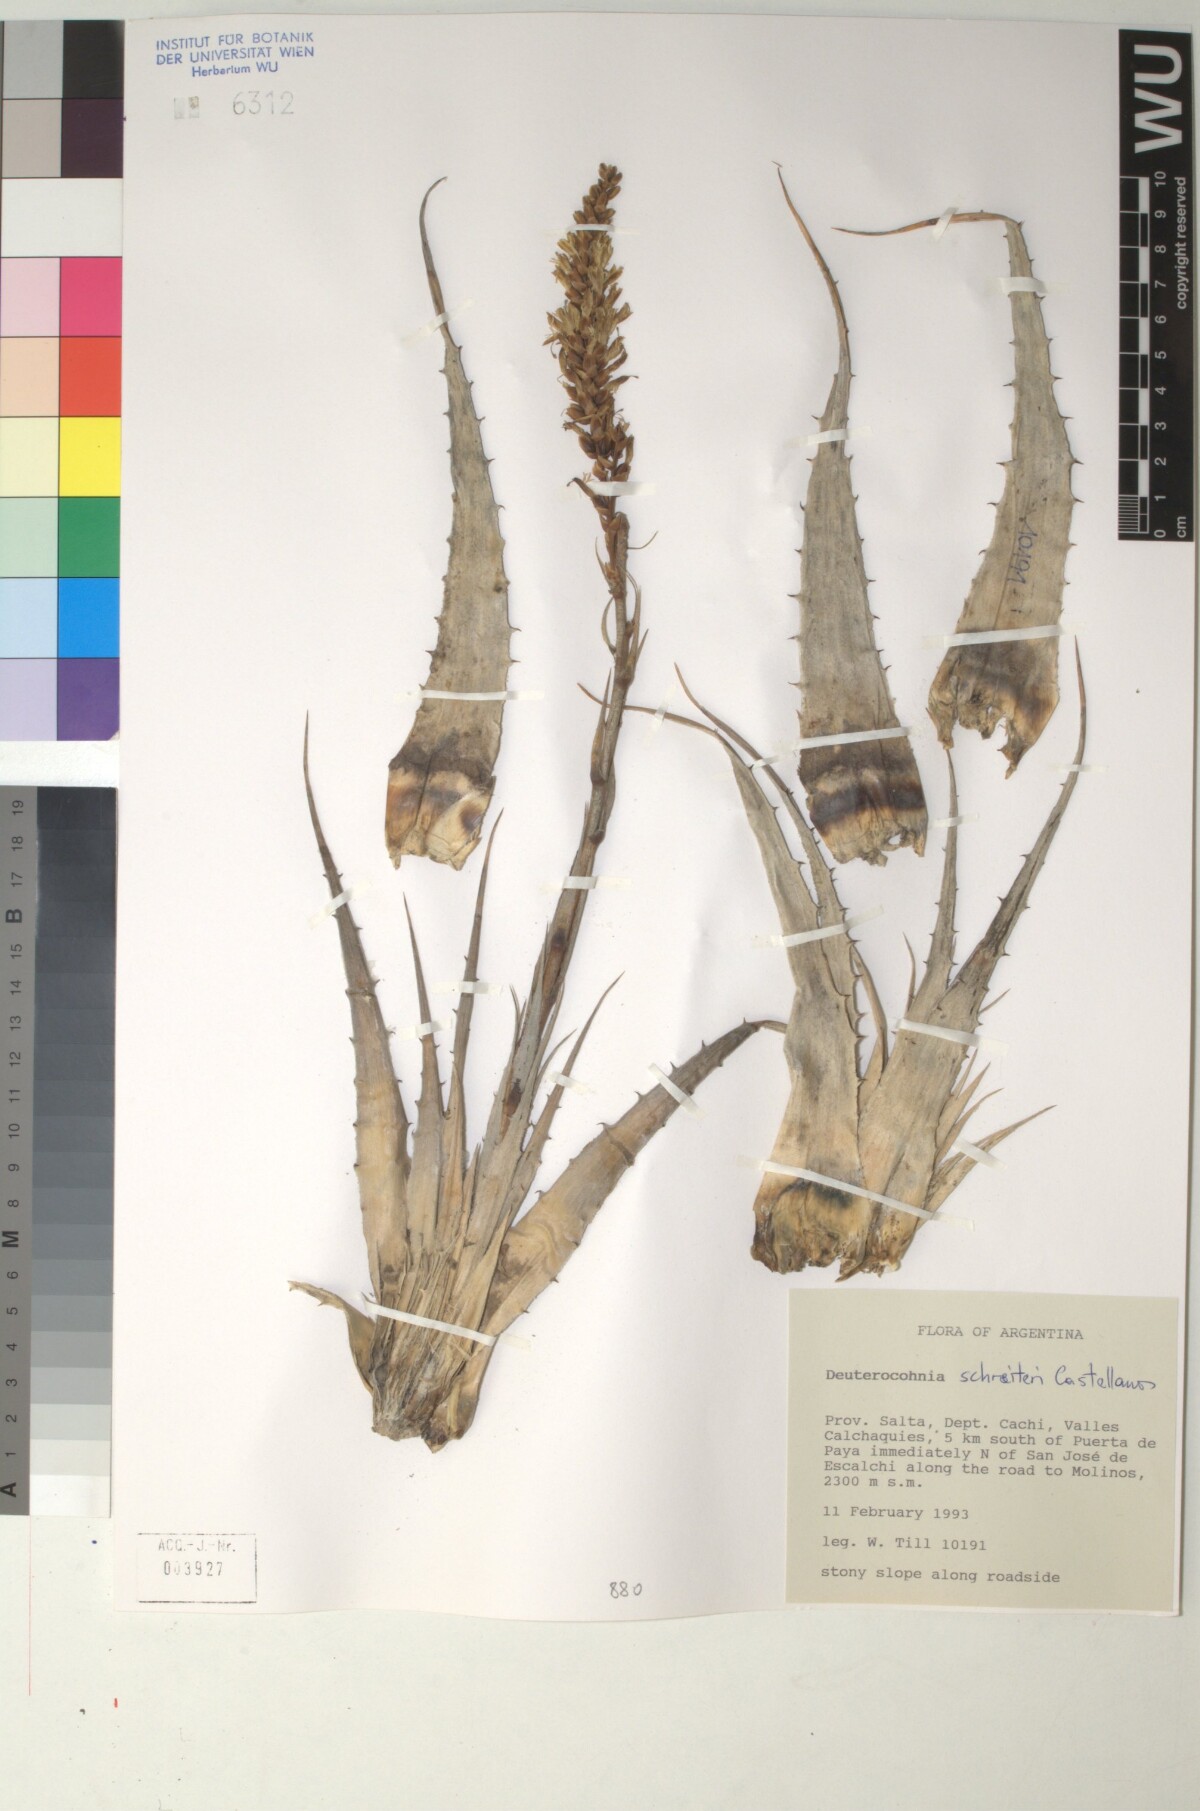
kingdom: Plantae
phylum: Tracheophyta
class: Liliopsida
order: Poales
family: Bromeliaceae
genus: Deuterocohnia
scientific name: Deuterocohnia schreiteri
